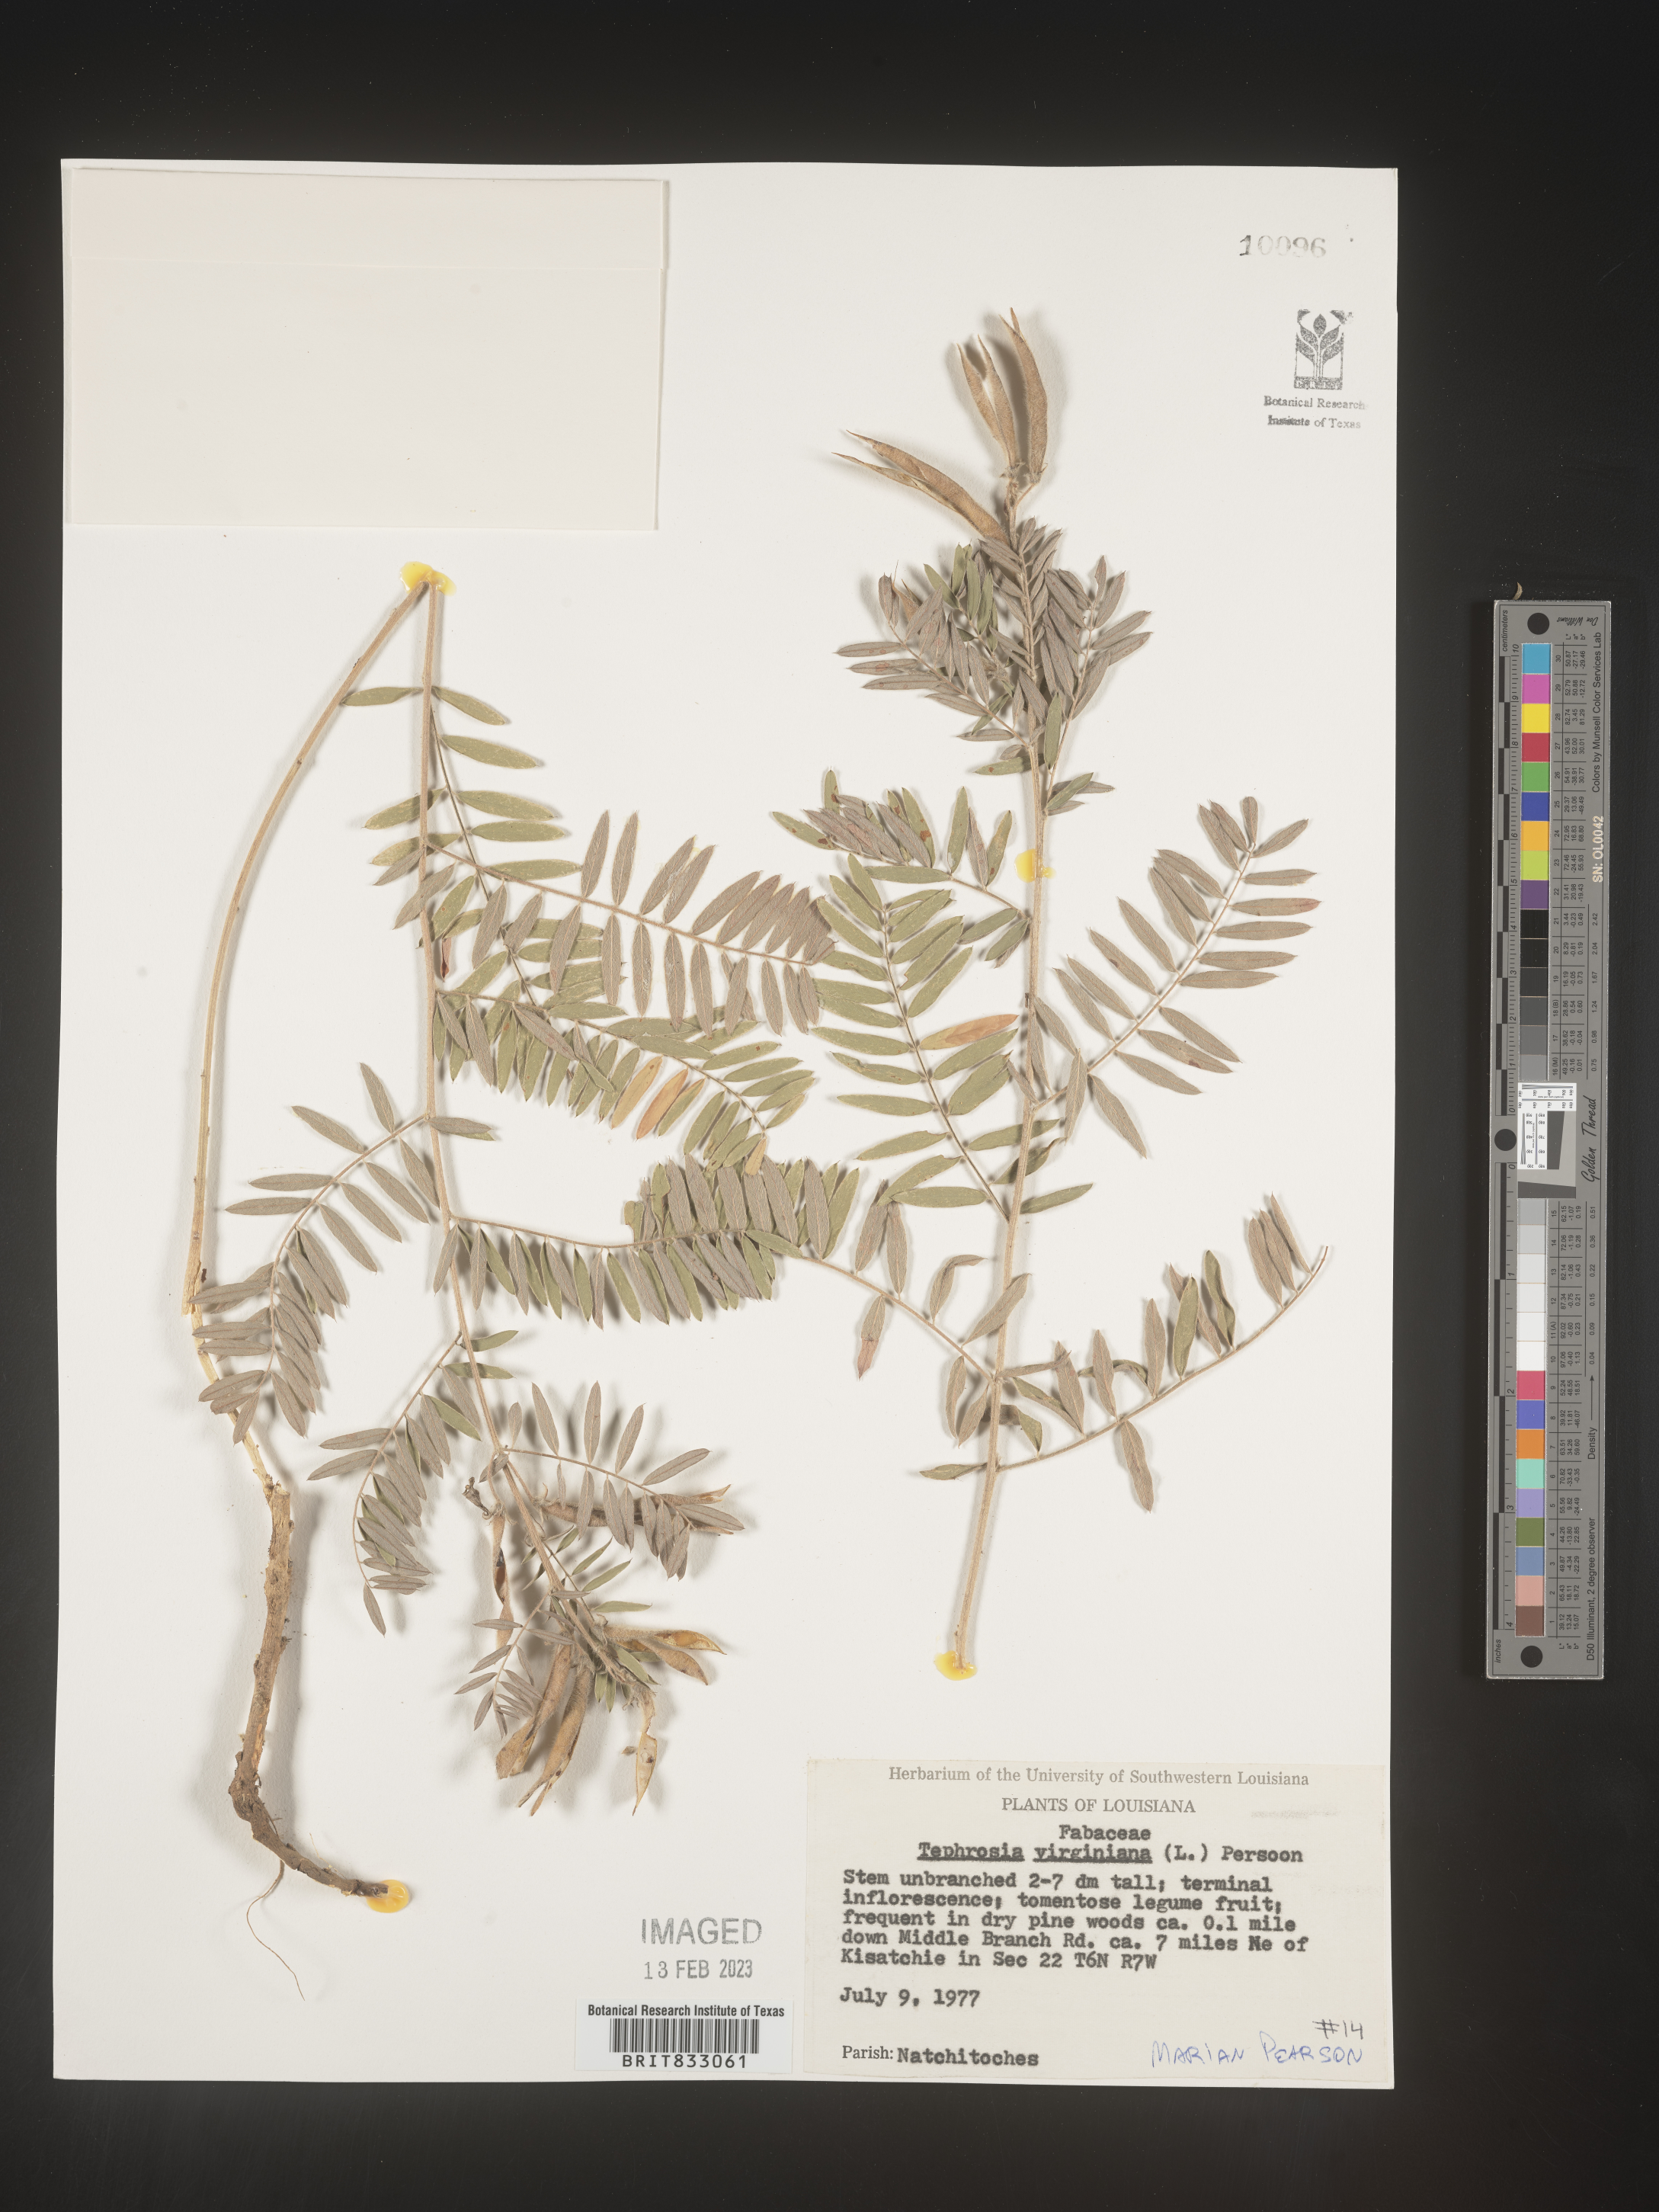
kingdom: Plantae
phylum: Tracheophyta
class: Magnoliopsida
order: Fabales
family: Fabaceae
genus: Tephrosia
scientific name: Tephrosia virginiana
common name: Rabbit-pea
